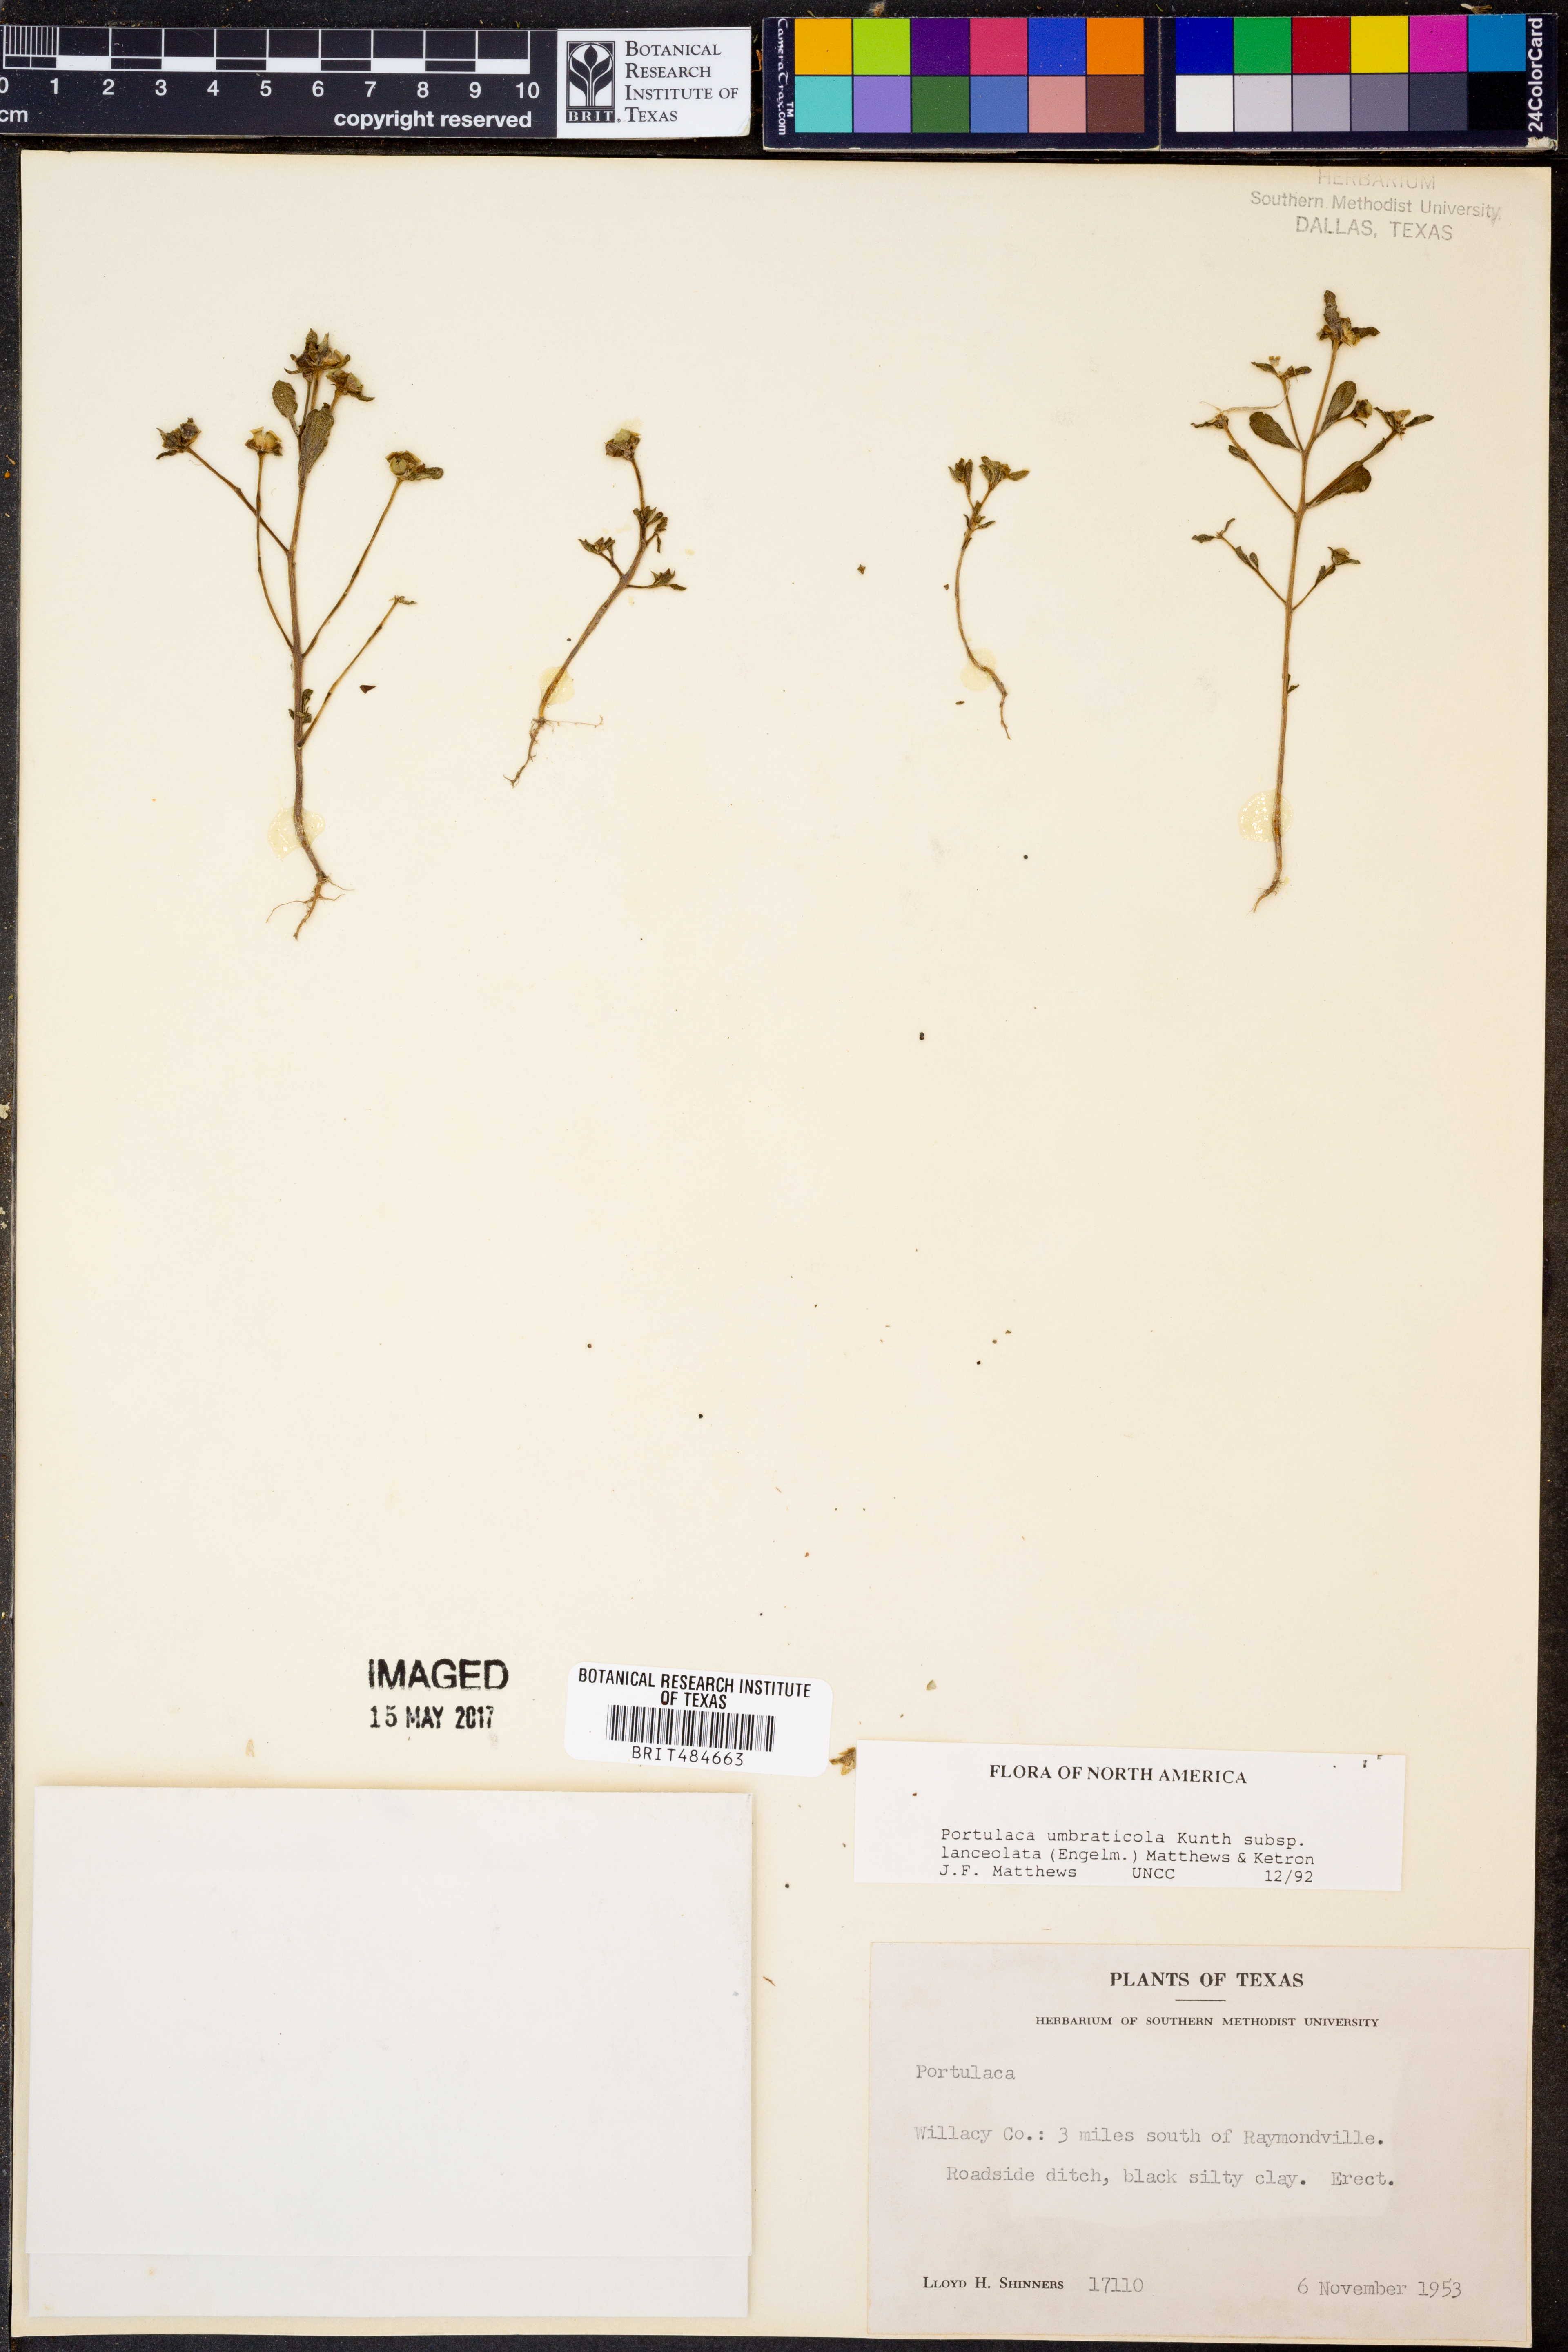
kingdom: Plantae
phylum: Tracheophyta
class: Magnoliopsida
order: Caryophyllales
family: Portulacaceae
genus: Portulaca
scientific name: Portulaca umbraticola
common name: Wingpod purslane
